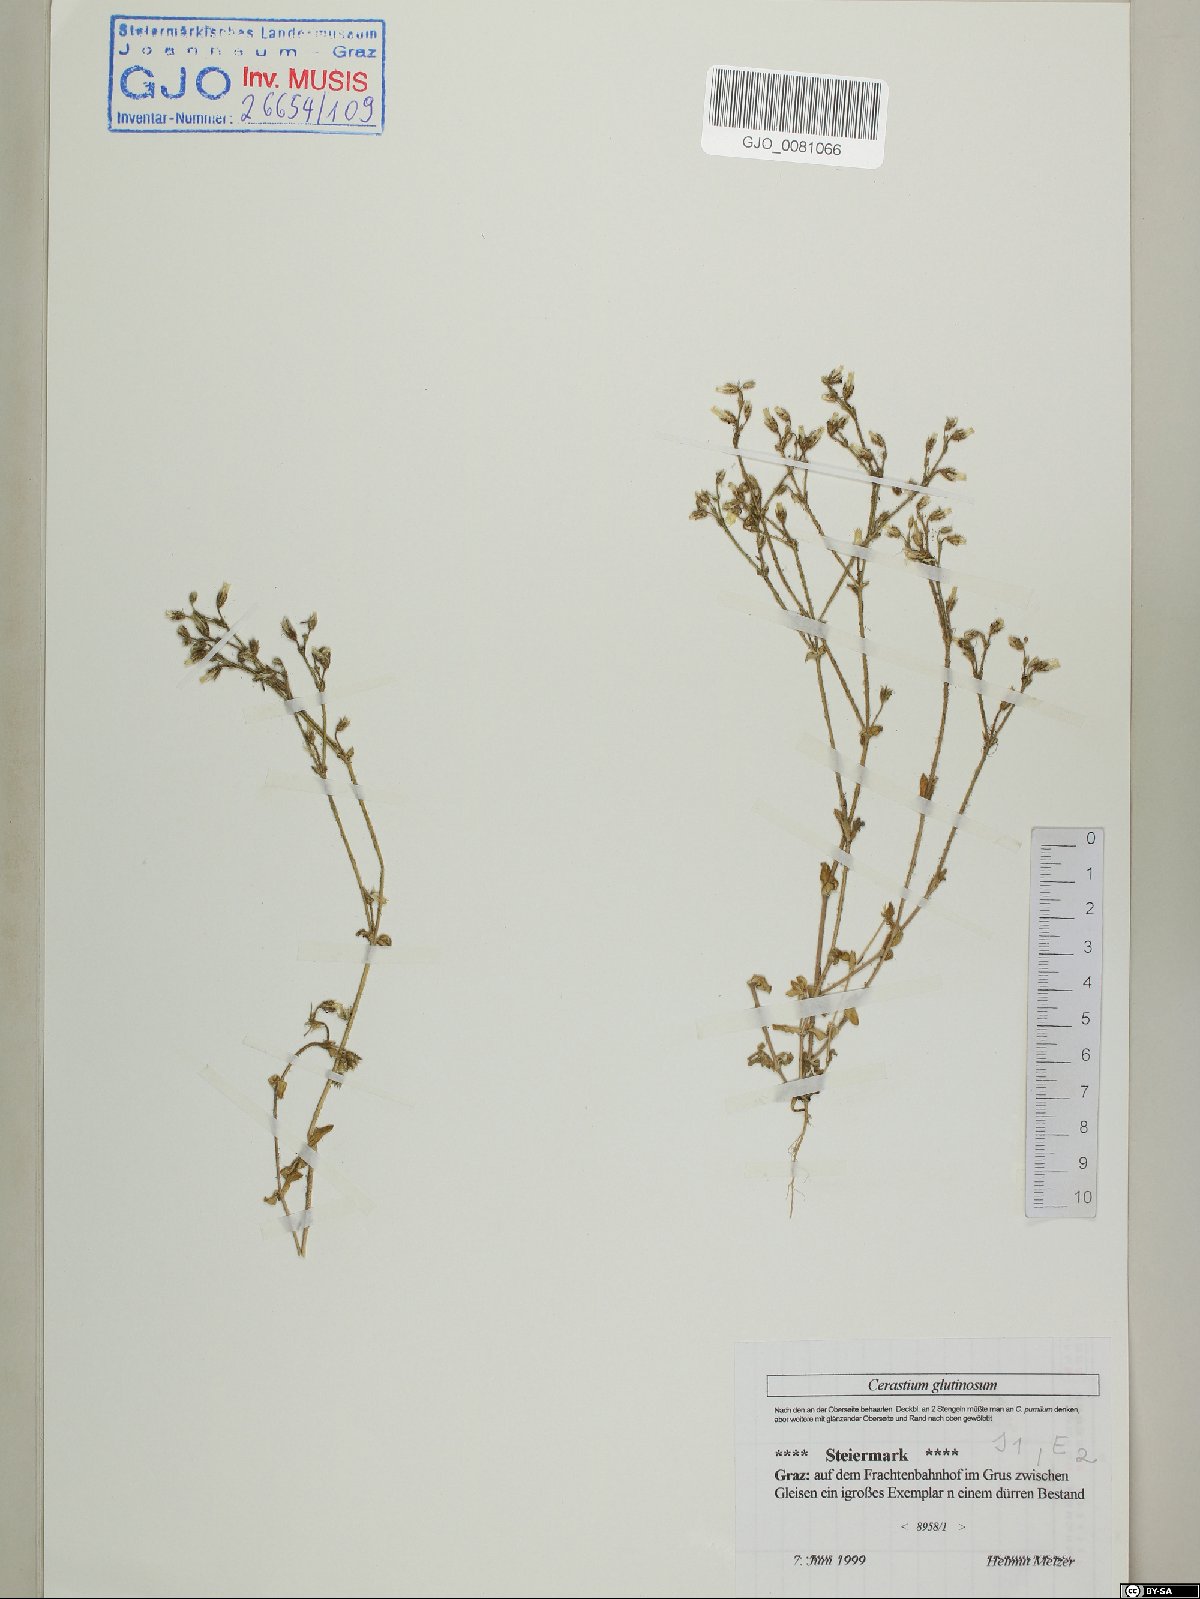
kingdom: Plantae
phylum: Tracheophyta
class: Magnoliopsida
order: Caryophyllales
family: Caryophyllaceae
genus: Cerastium
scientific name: Cerastium glutinosum
